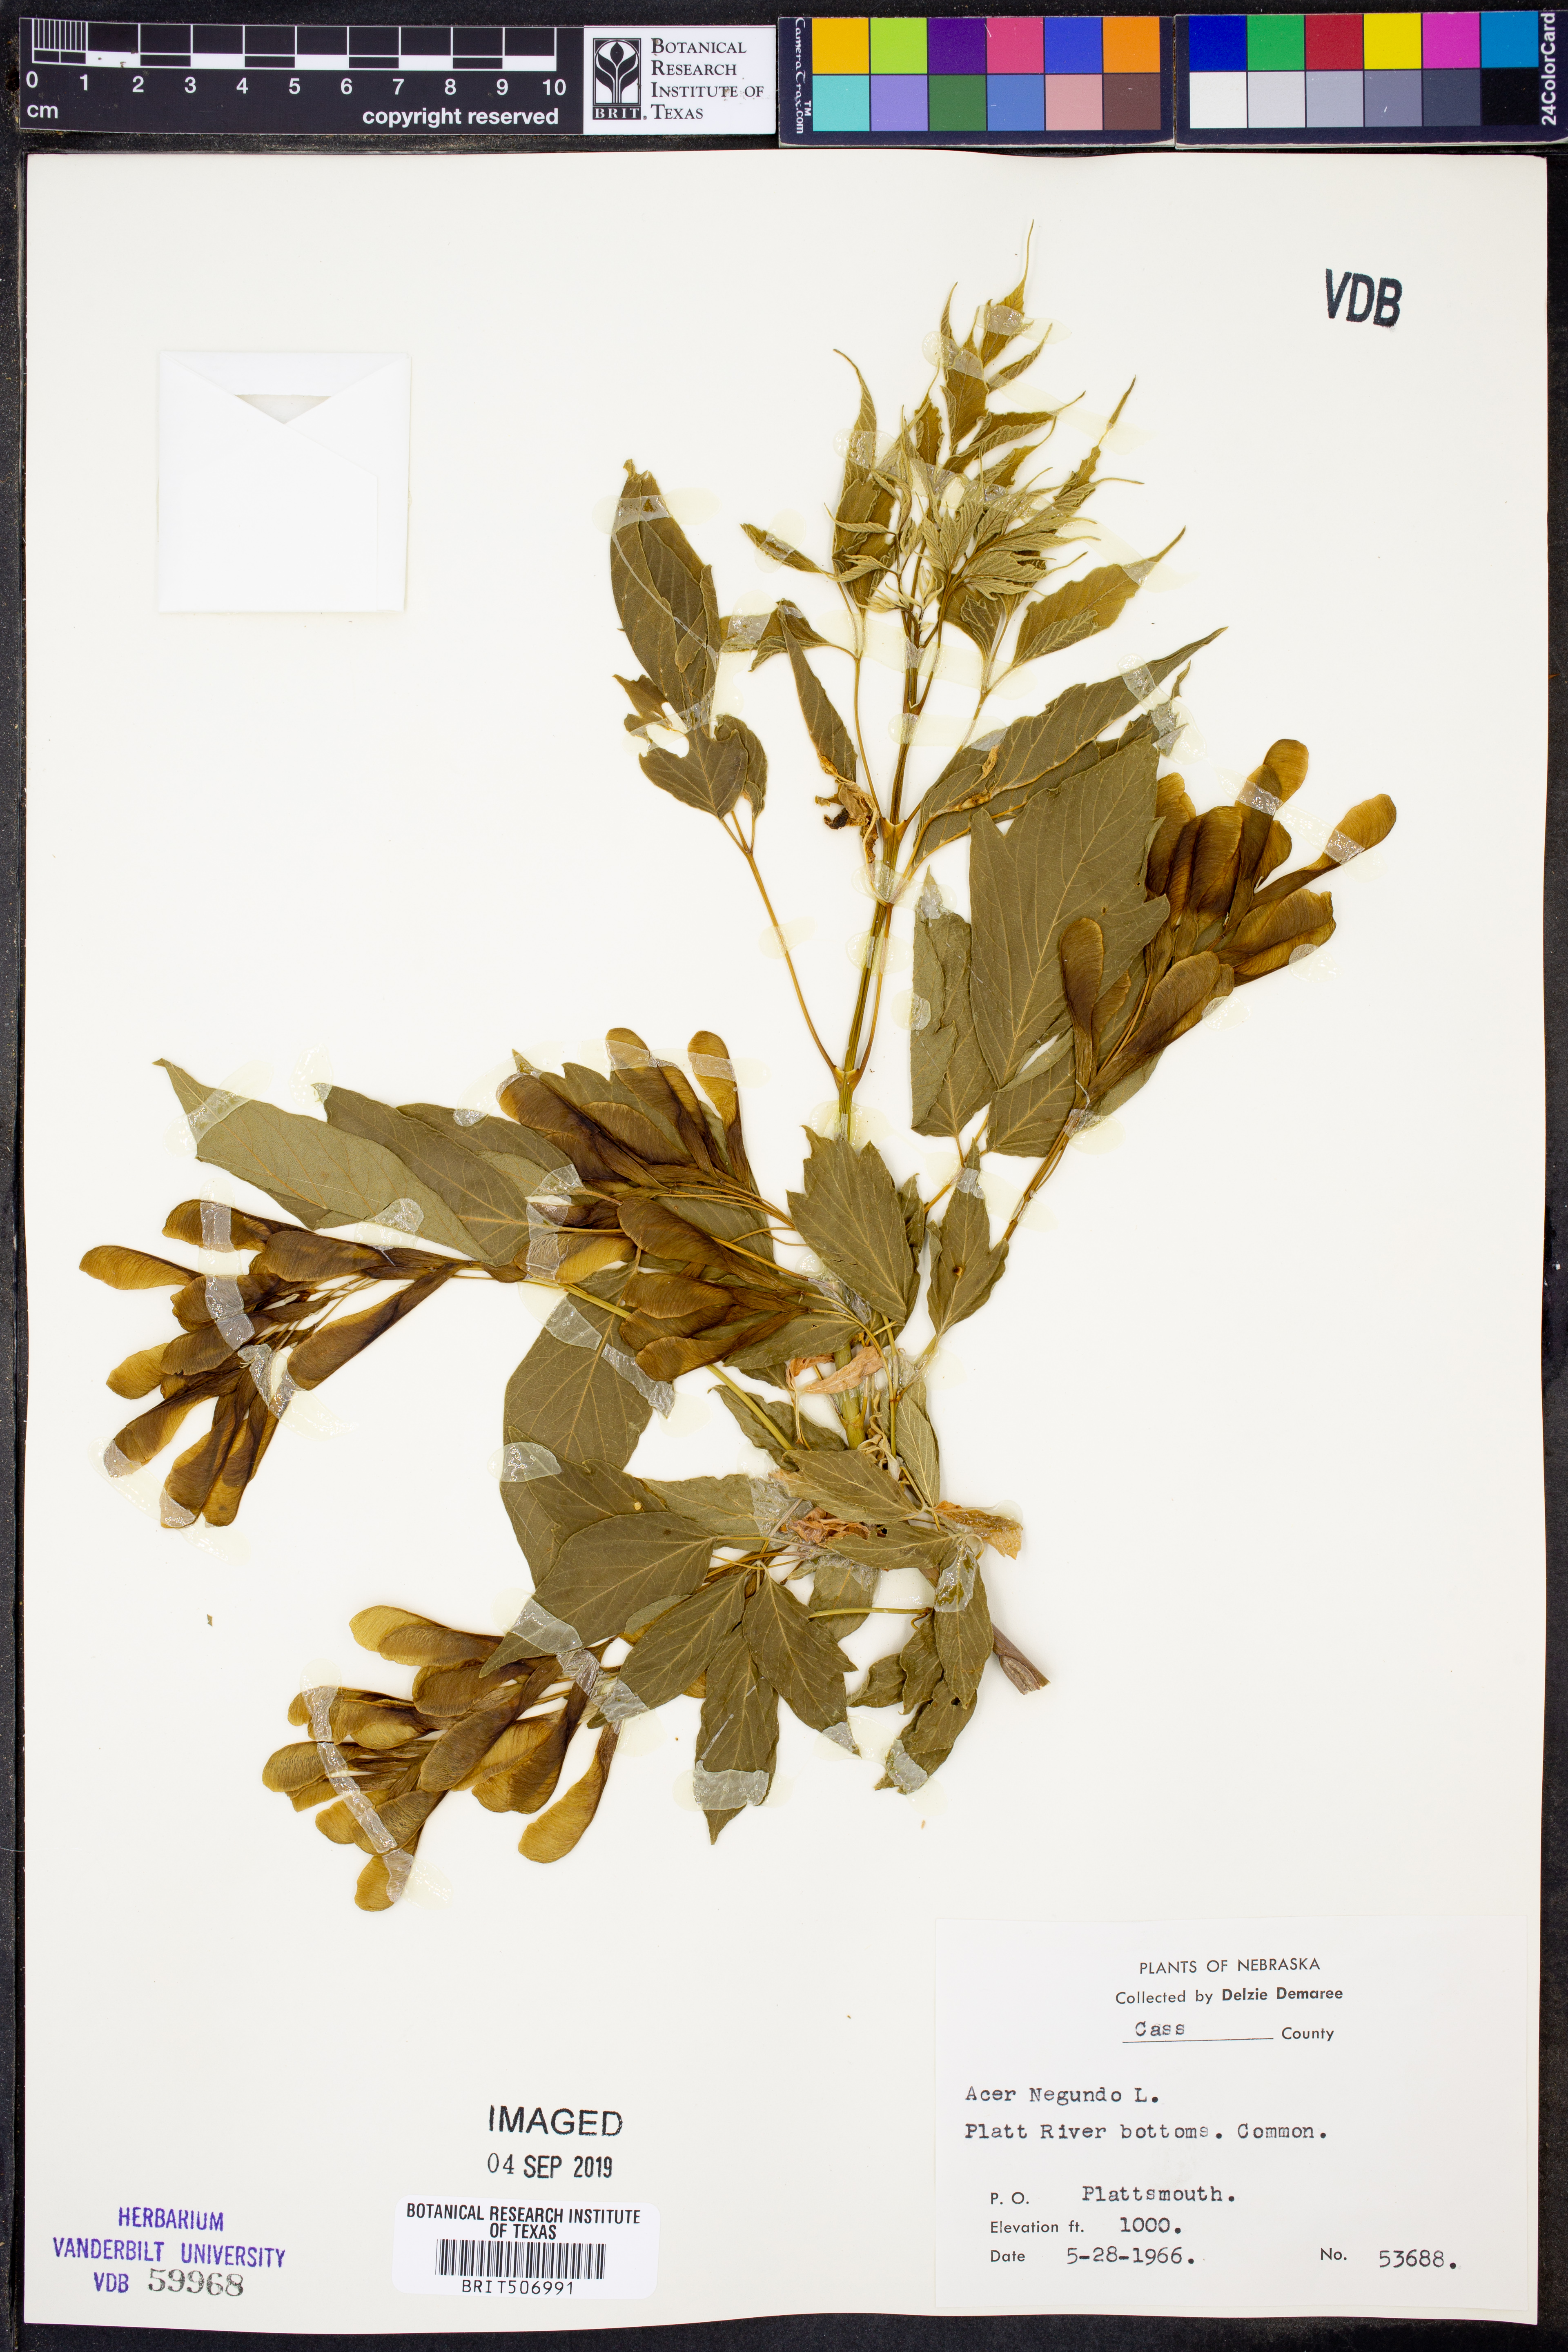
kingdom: Plantae
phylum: Tracheophyta
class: Magnoliopsida
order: Sapindales
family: Sapindaceae
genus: Acer
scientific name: Acer negundo
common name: Ashleaf maple
